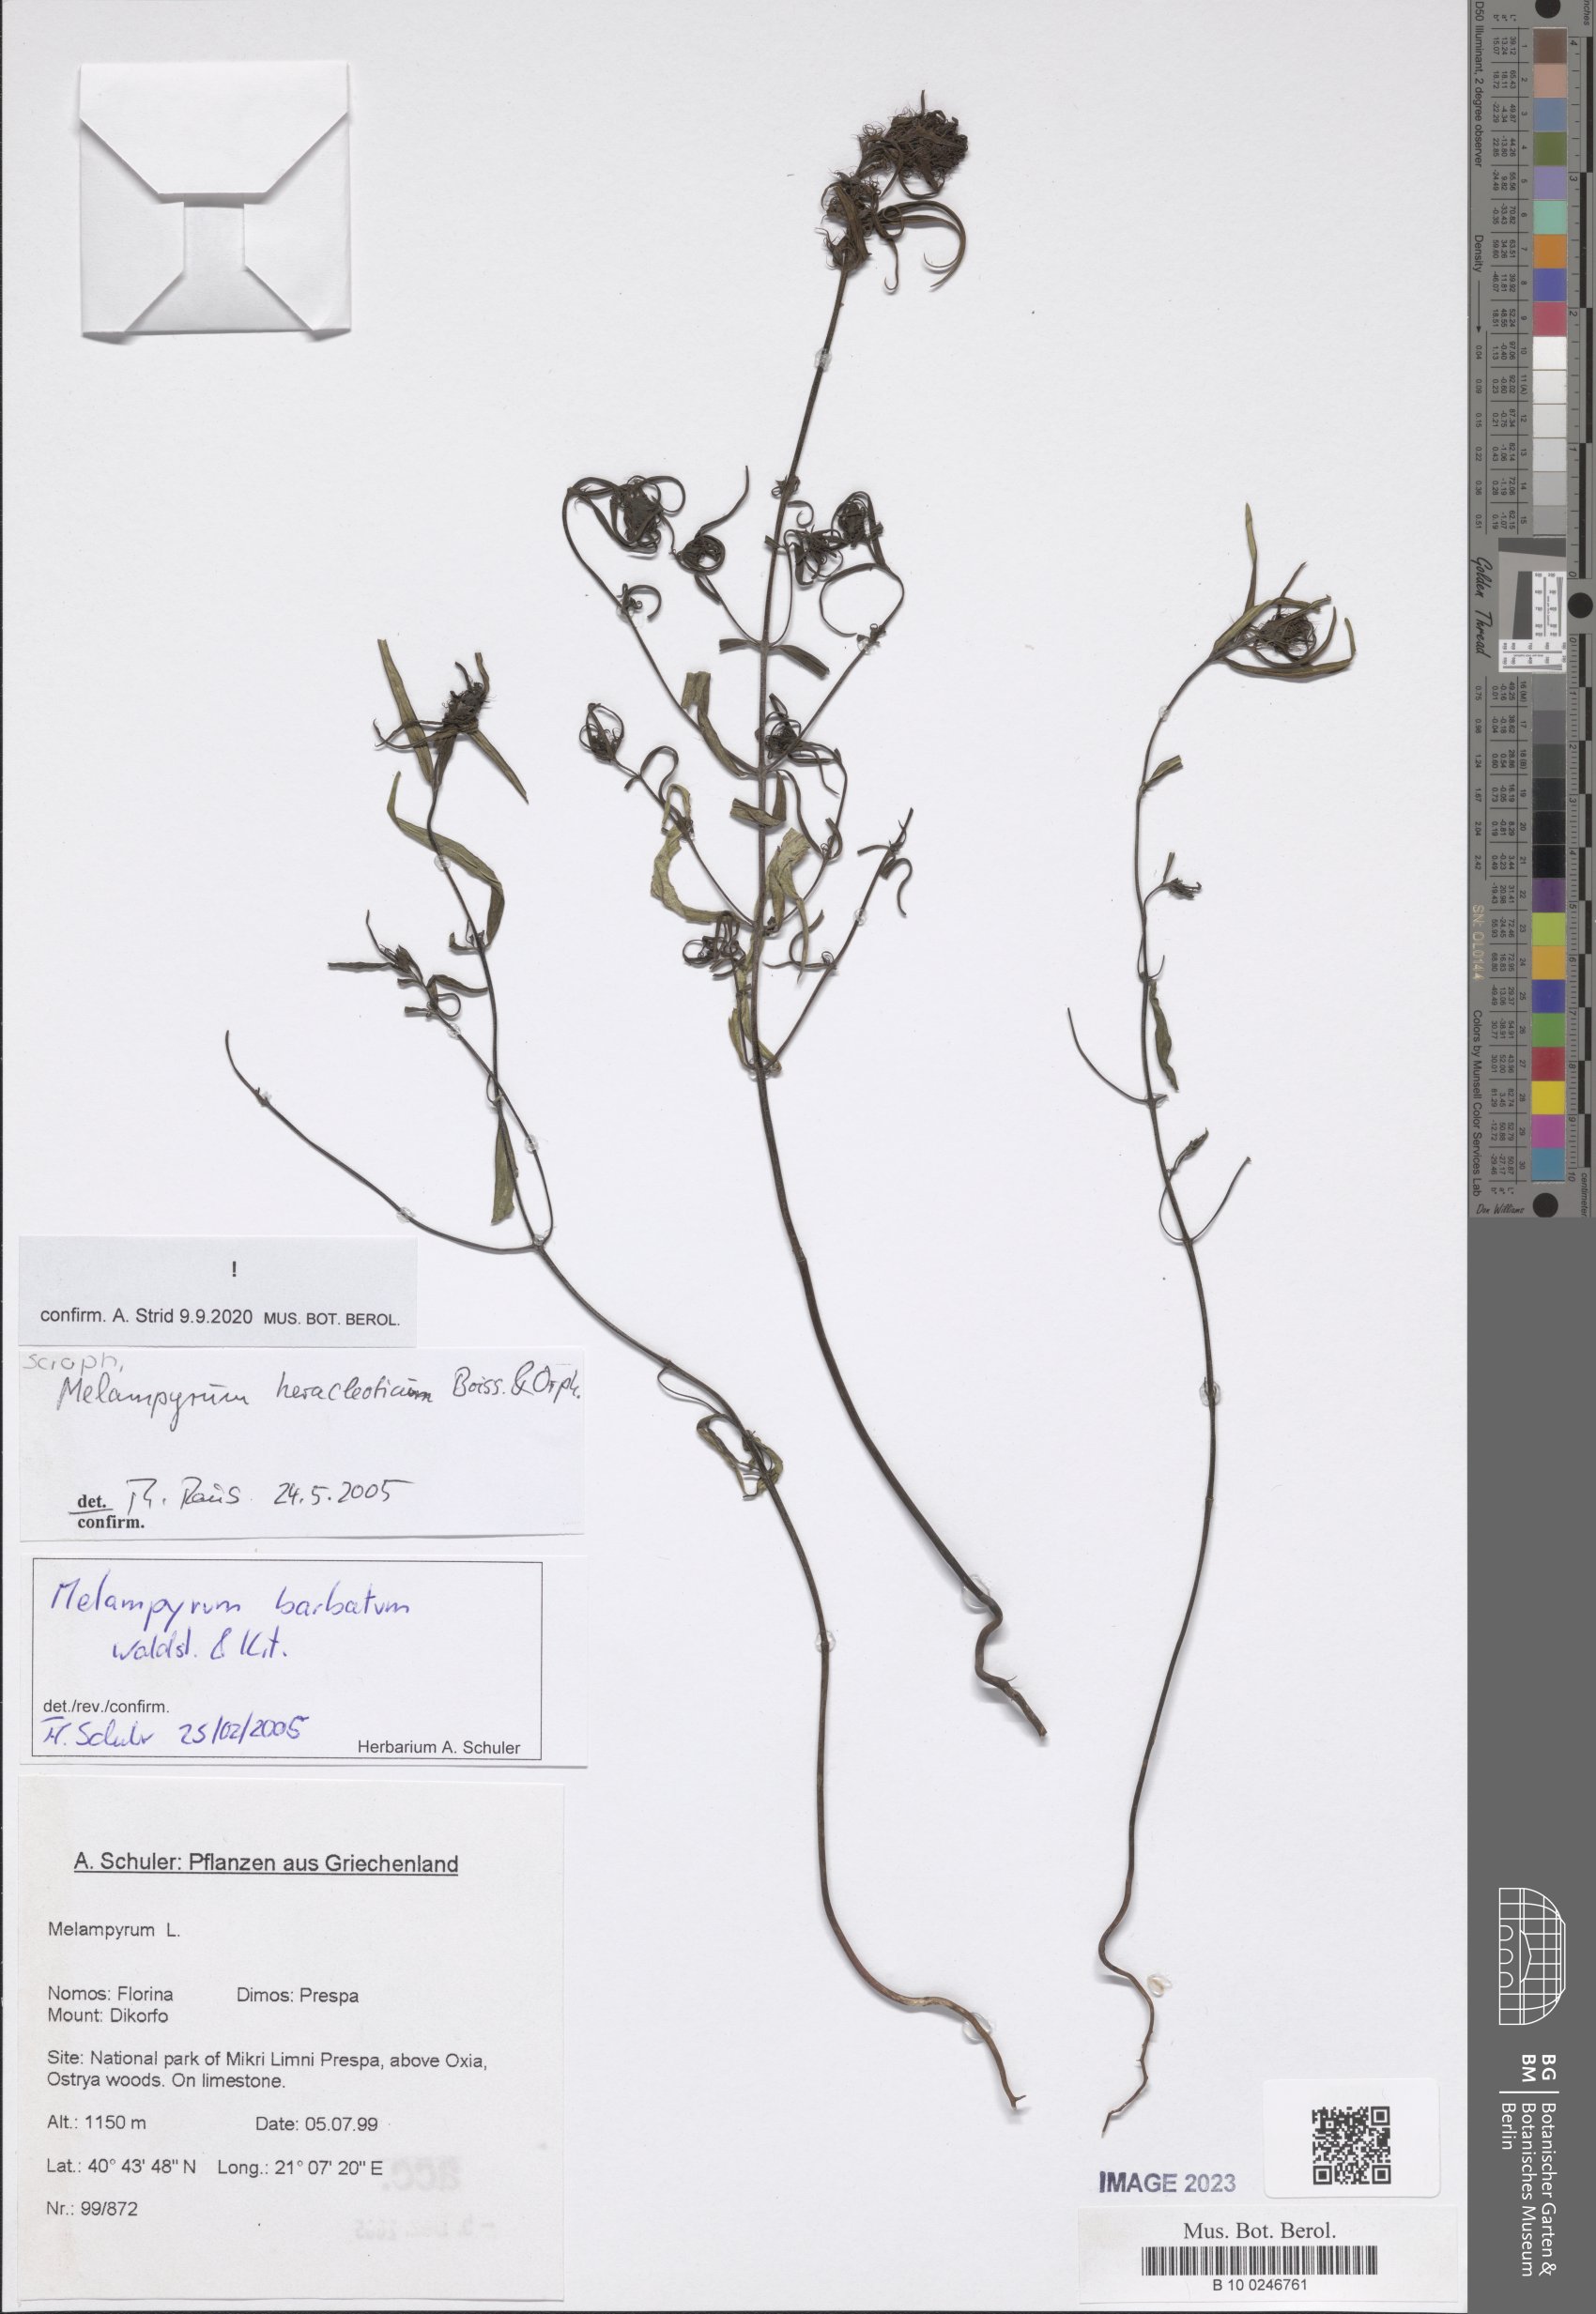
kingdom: Plantae
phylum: Tracheophyta
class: Magnoliopsida
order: Lamiales
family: Orobanchaceae
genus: Melampyrum
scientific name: Melampyrum heracleoticum
